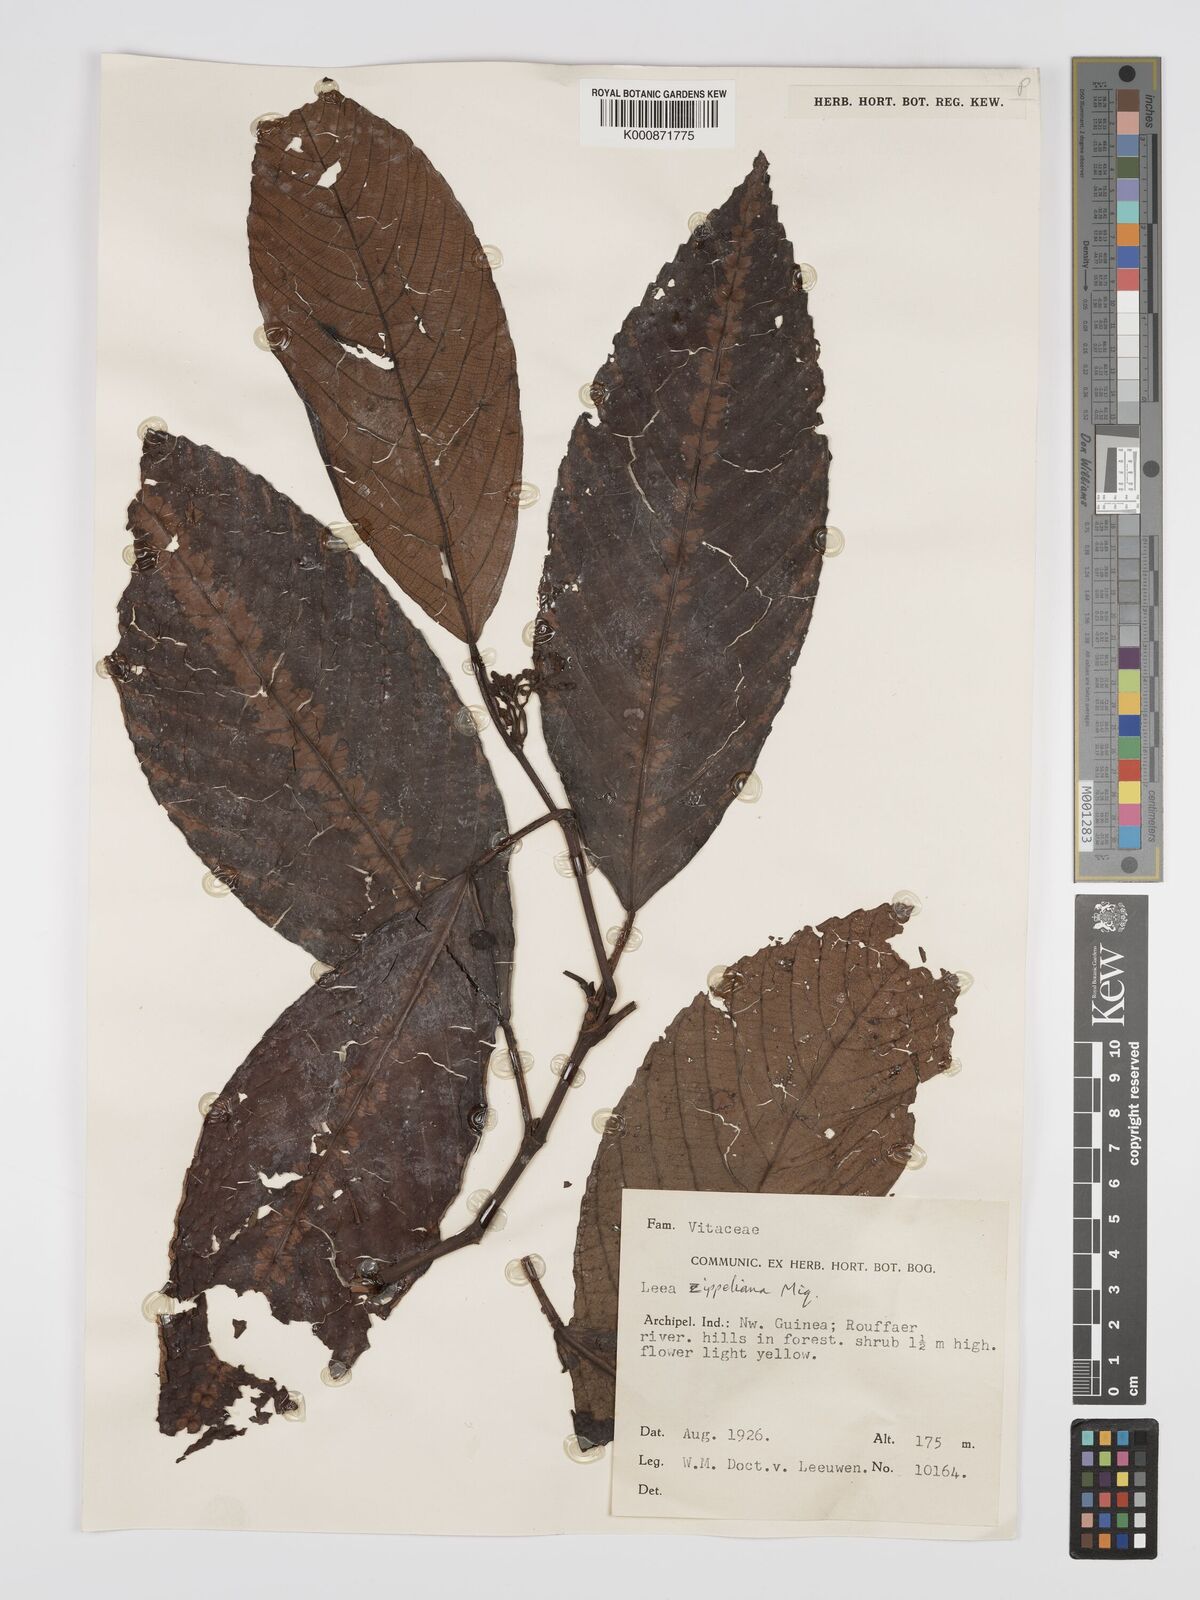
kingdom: Plantae
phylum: Tracheophyta
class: Magnoliopsida
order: Vitales
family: Vitaceae
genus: Leea
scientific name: Leea zippeliana
